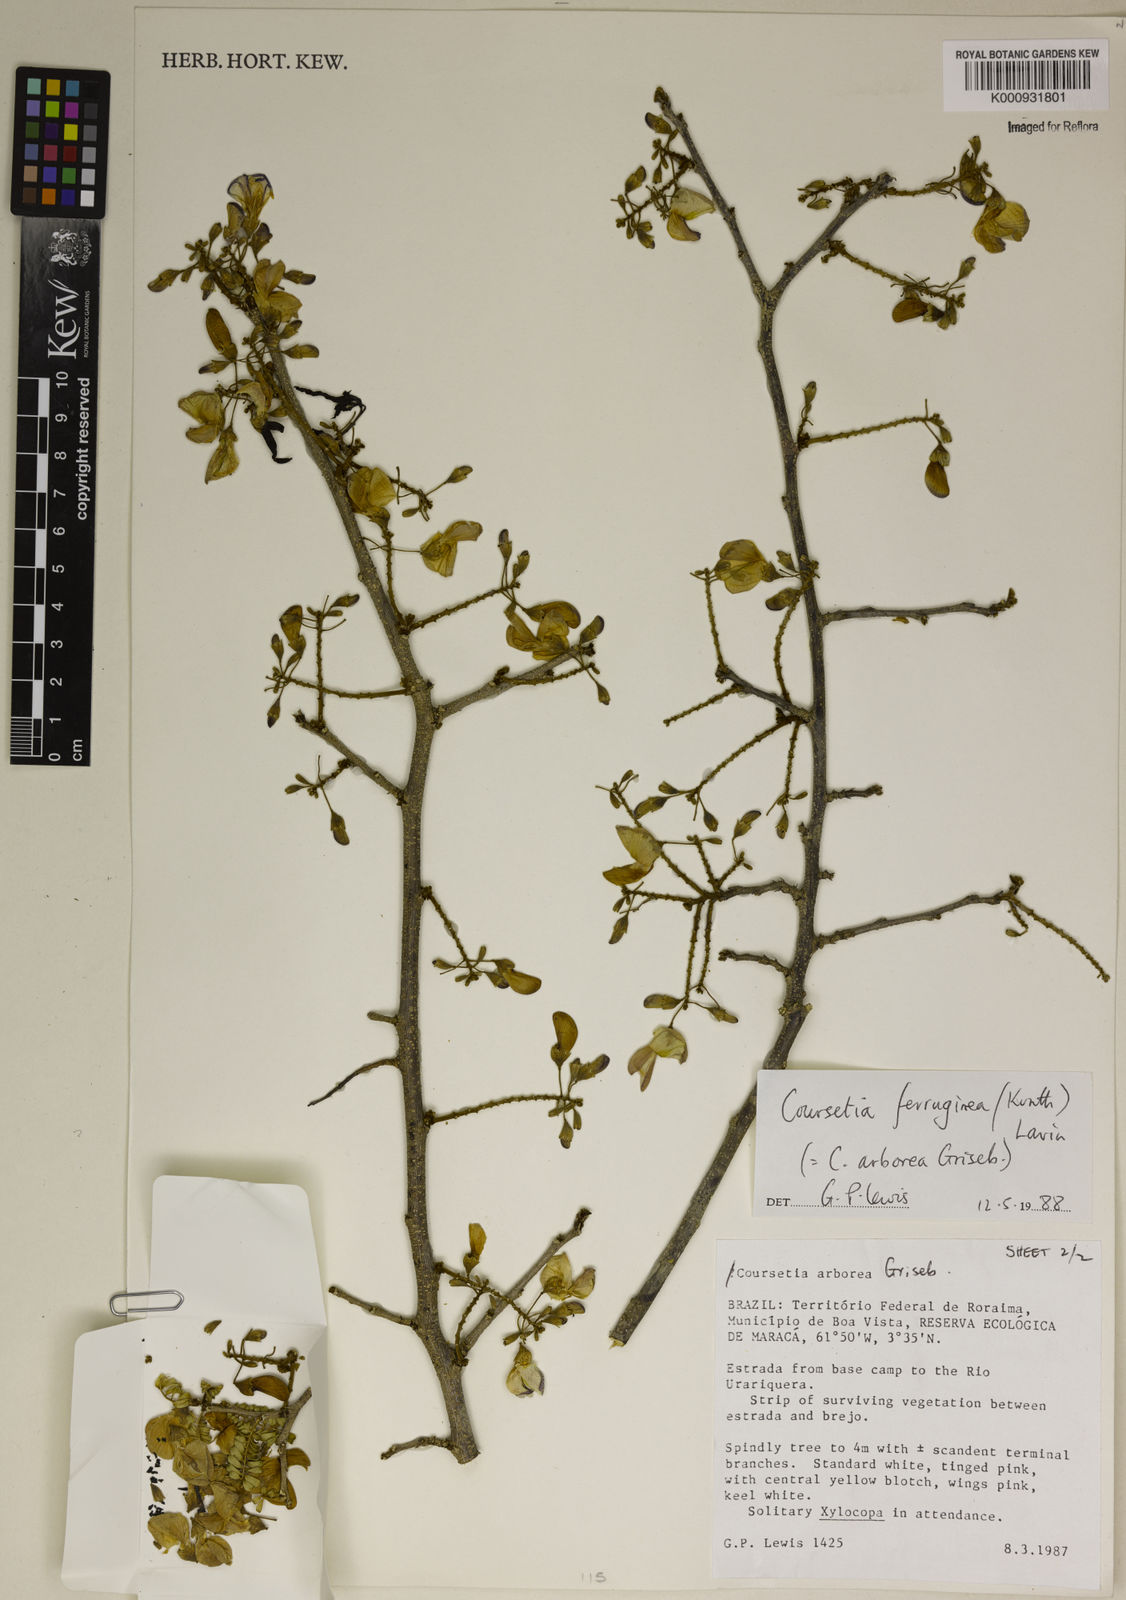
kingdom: Plantae
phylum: Tracheophyta
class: Magnoliopsida
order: Fabales
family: Fabaceae
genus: Coursetia
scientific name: Coursetia ferruginea
